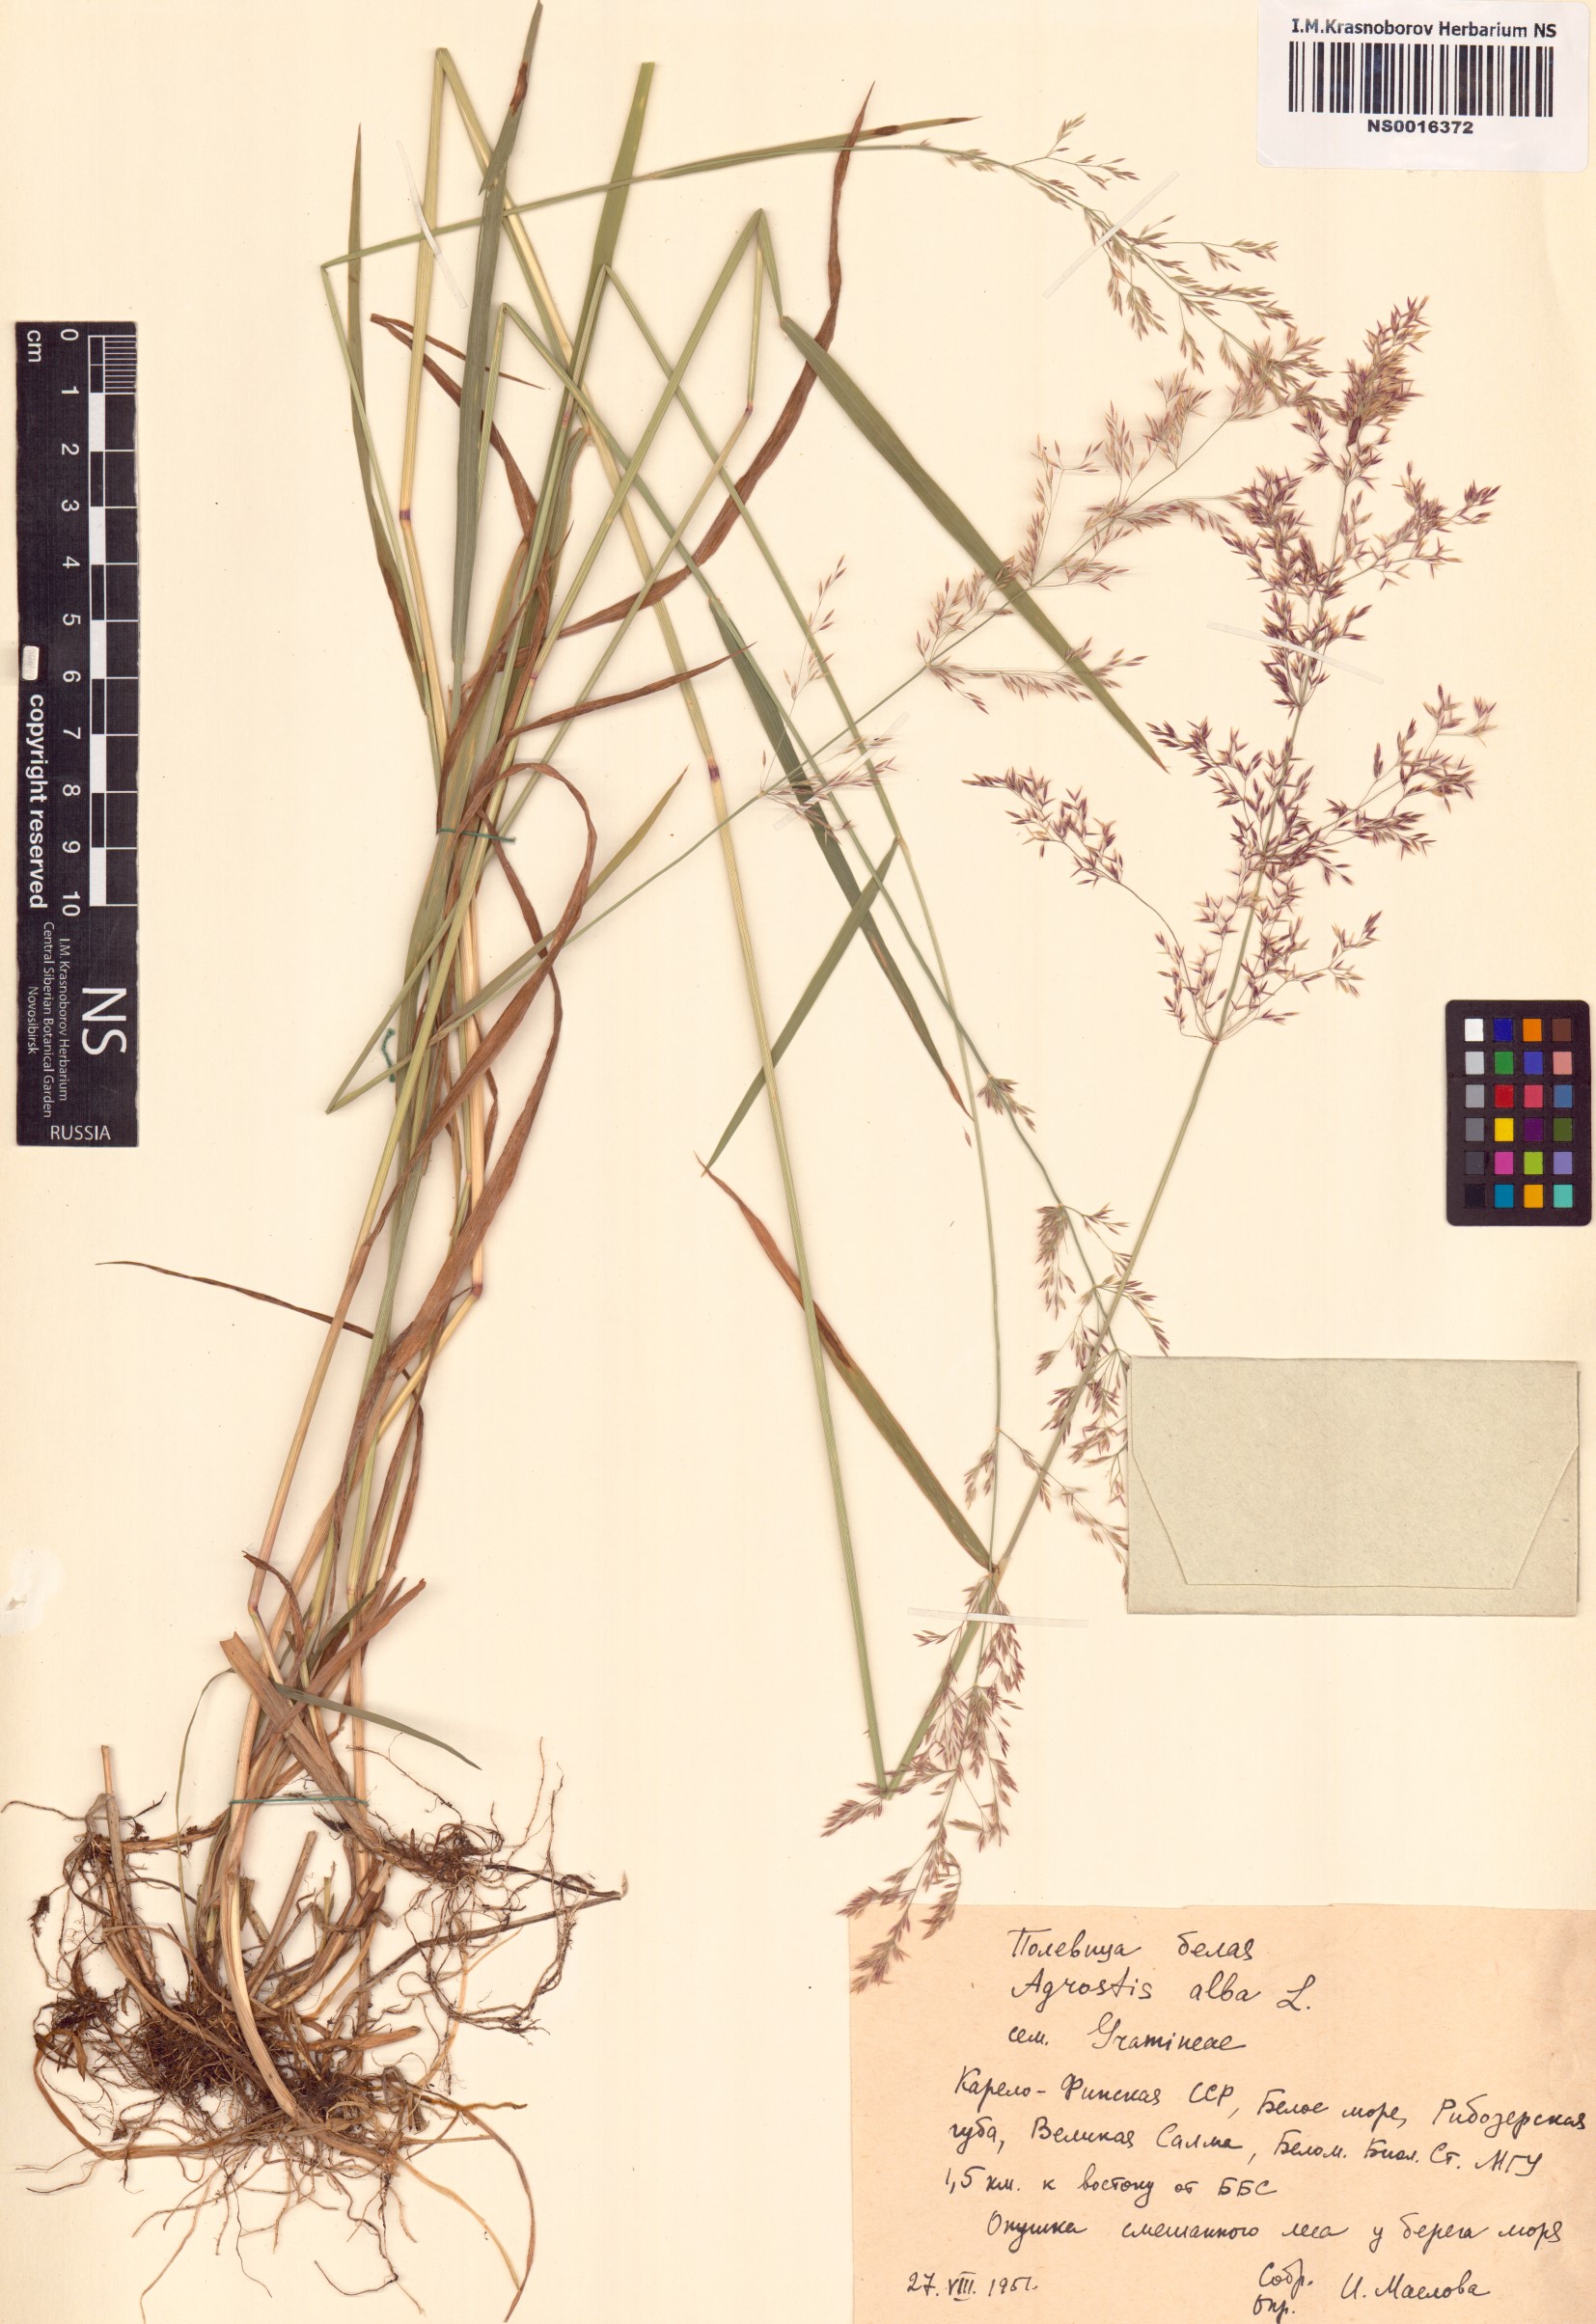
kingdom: Plantae
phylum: Tracheophyta
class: Liliopsida
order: Poales
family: Poaceae
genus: Poa
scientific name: Poa nemoralis
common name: Wood bluegrass
